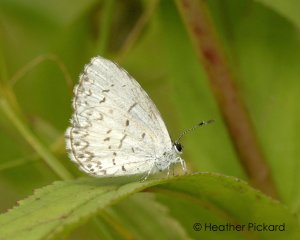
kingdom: Animalia
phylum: Arthropoda
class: Insecta
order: Lepidoptera
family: Lycaenidae
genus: Cyaniris
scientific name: Cyaniris neglecta
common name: Summer Azure
